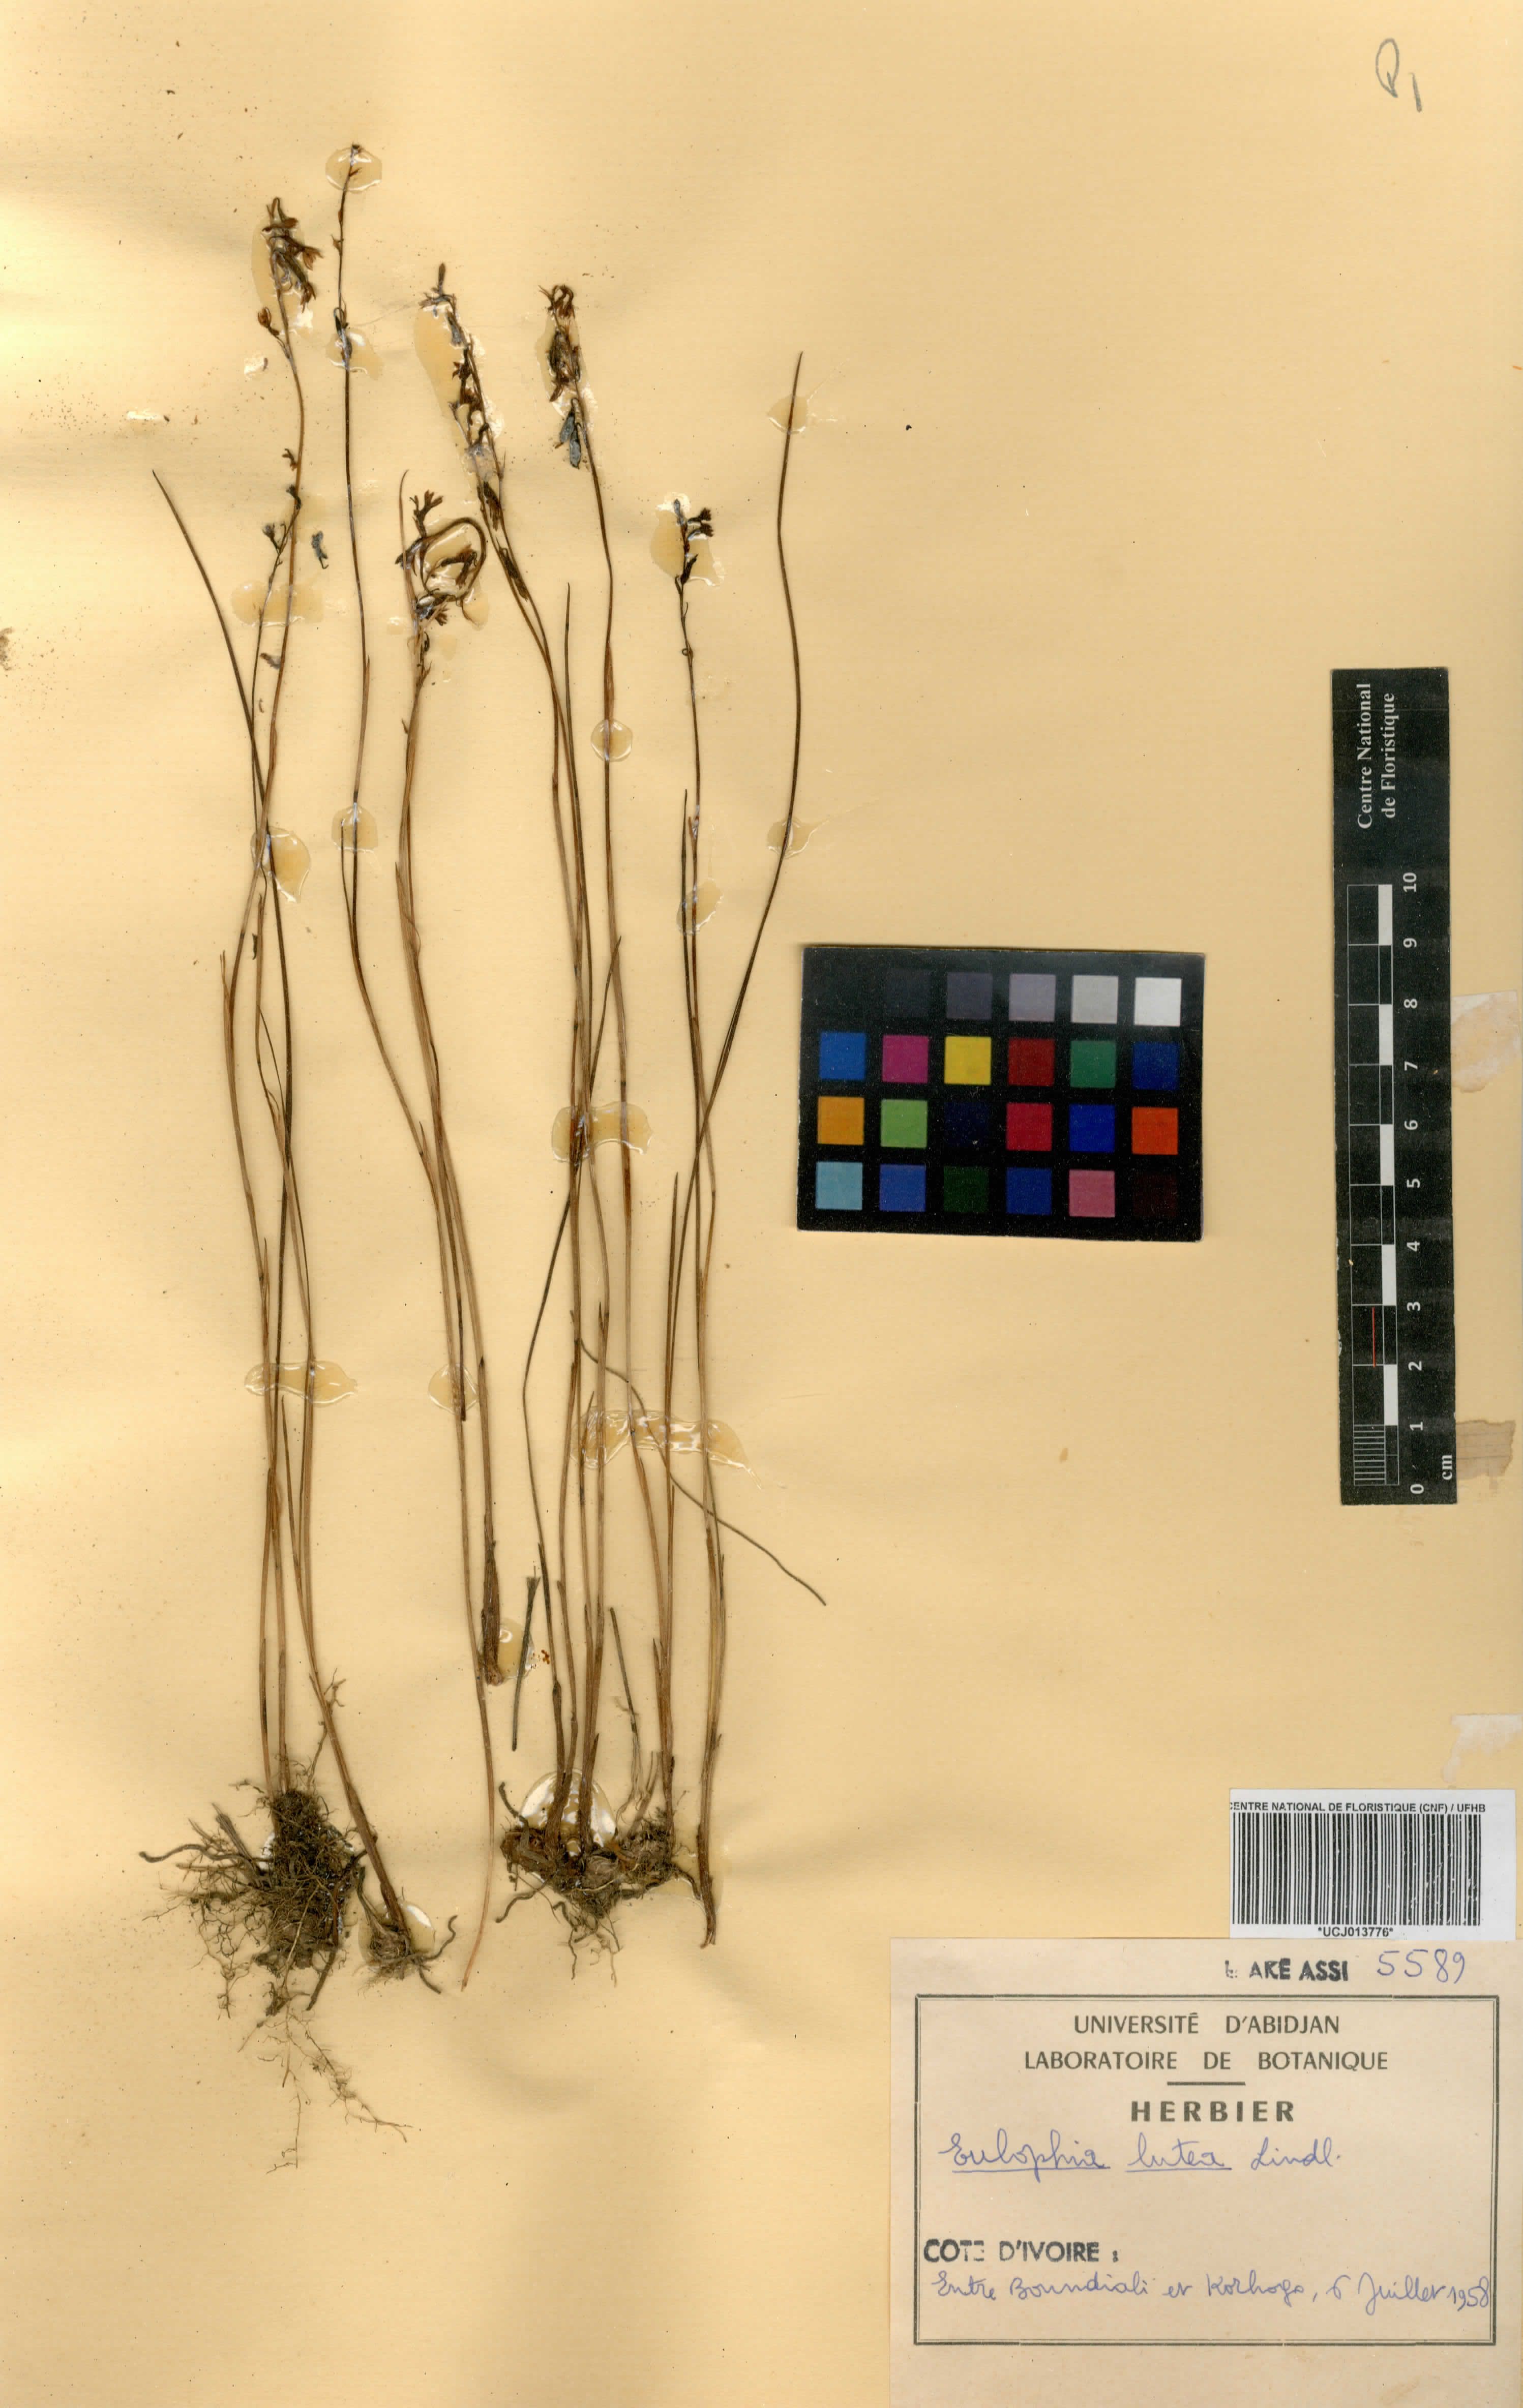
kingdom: Plantae
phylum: Tracheophyta
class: Liliopsida
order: Asparagales
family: Orchidaceae
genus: Eulophia
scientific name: Eulophia alta
